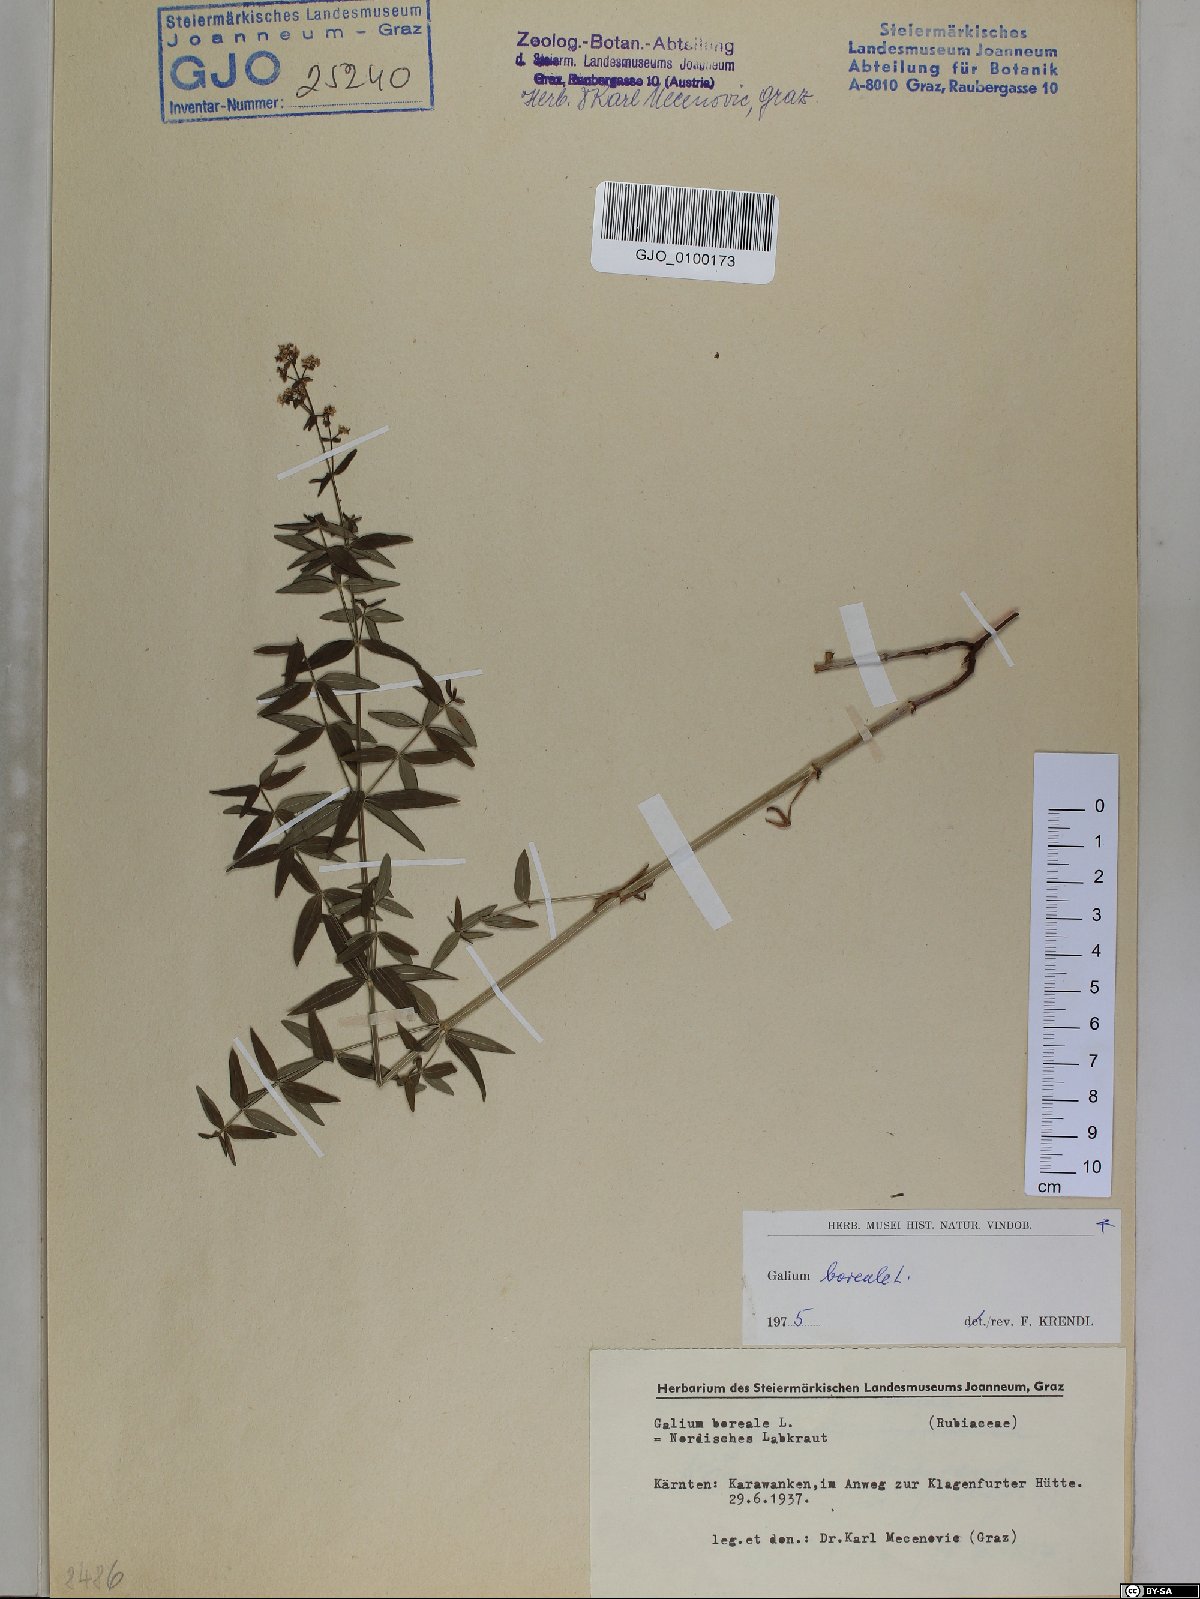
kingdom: Plantae
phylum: Tracheophyta
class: Magnoliopsida
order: Gentianales
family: Rubiaceae
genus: Galium
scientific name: Galium boreale
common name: Northern bedstraw
